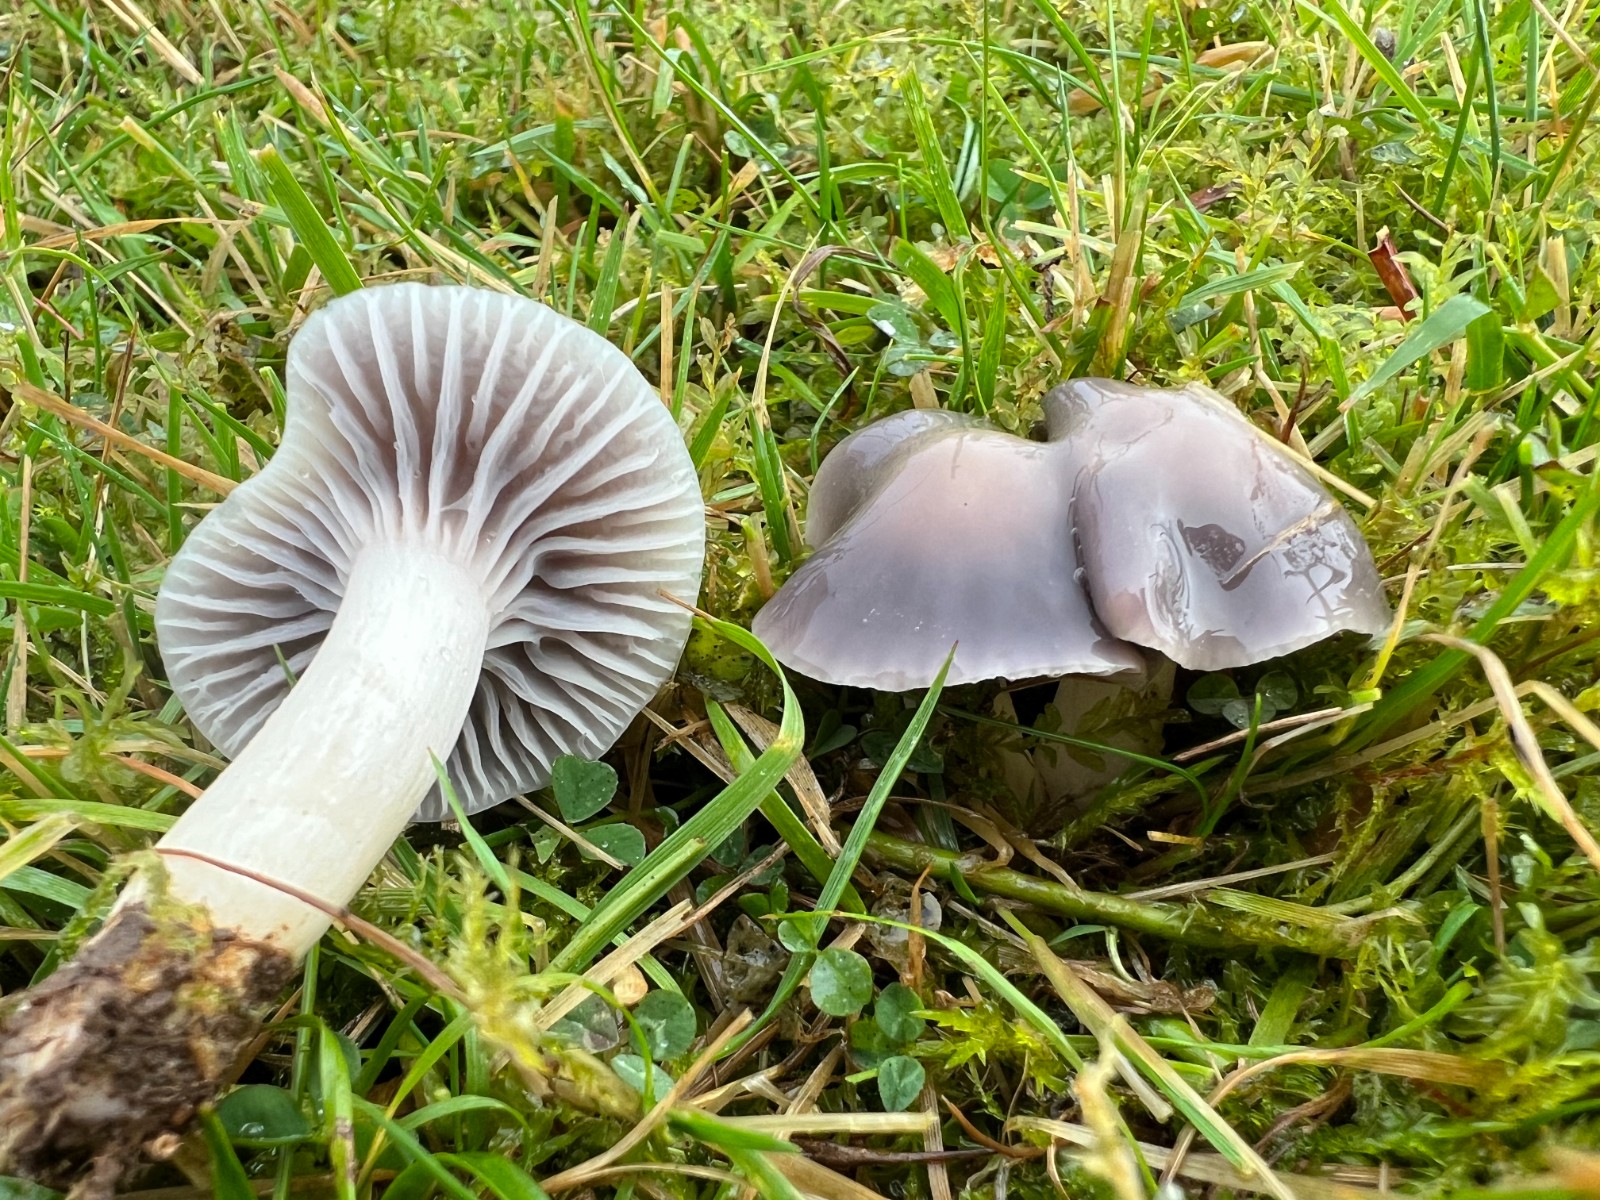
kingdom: Fungi
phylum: Basidiomycota
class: Agaricomycetes
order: Agaricales
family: Hygrophoraceae
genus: Cuphophyllus
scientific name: Cuphophyllus lacmus
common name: gråviolet vokshat
